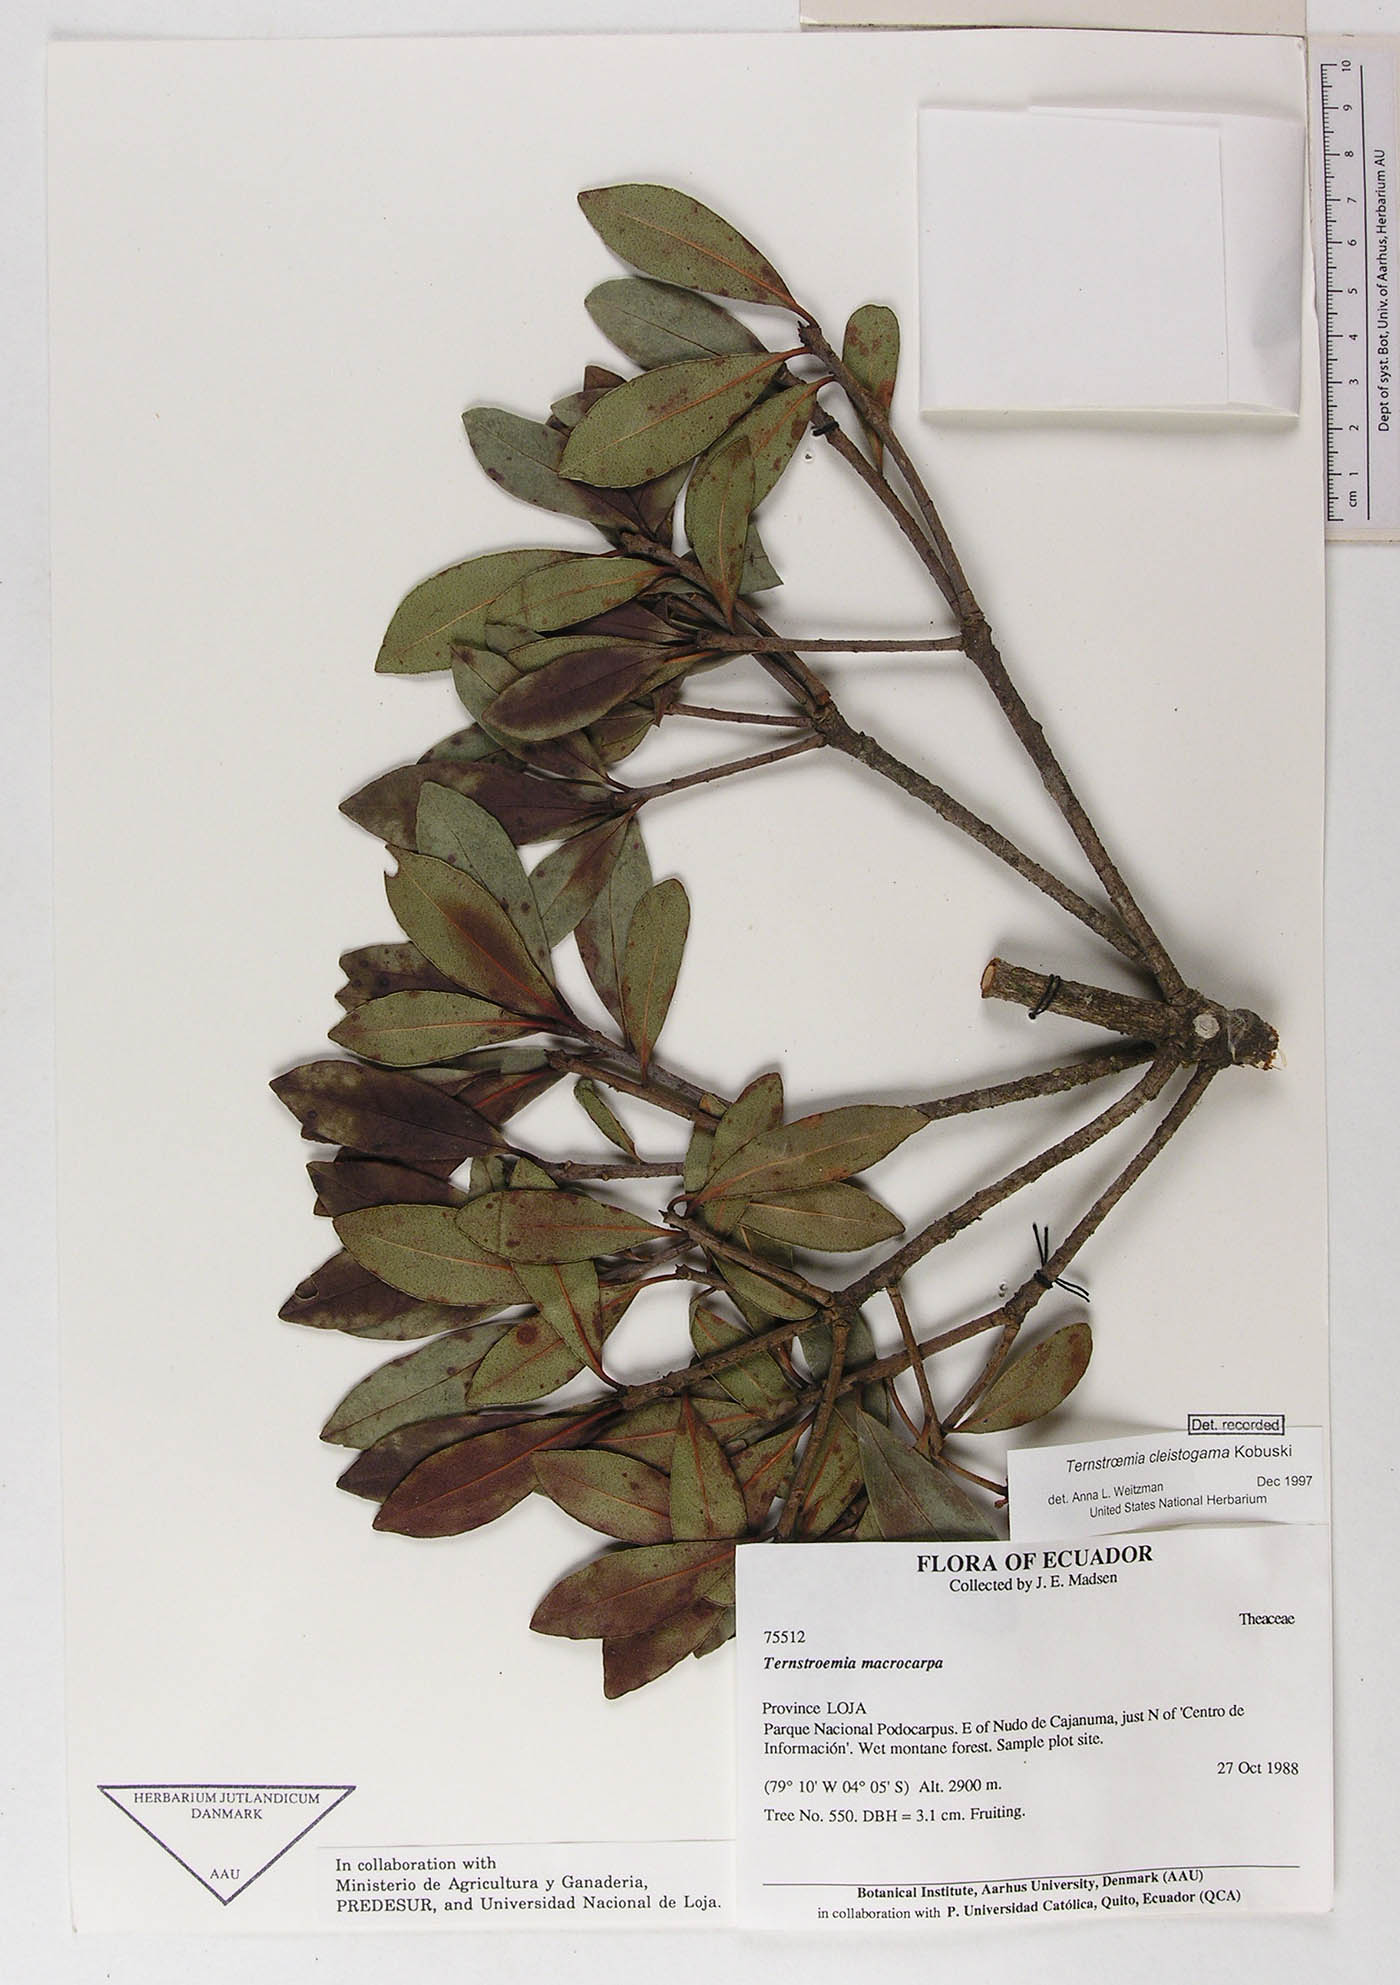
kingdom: Plantae
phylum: Tracheophyta
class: Magnoliopsida
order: Ericales
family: Pentaphylacaceae
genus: Ternstroemia
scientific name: Ternstroemia cleistogama
